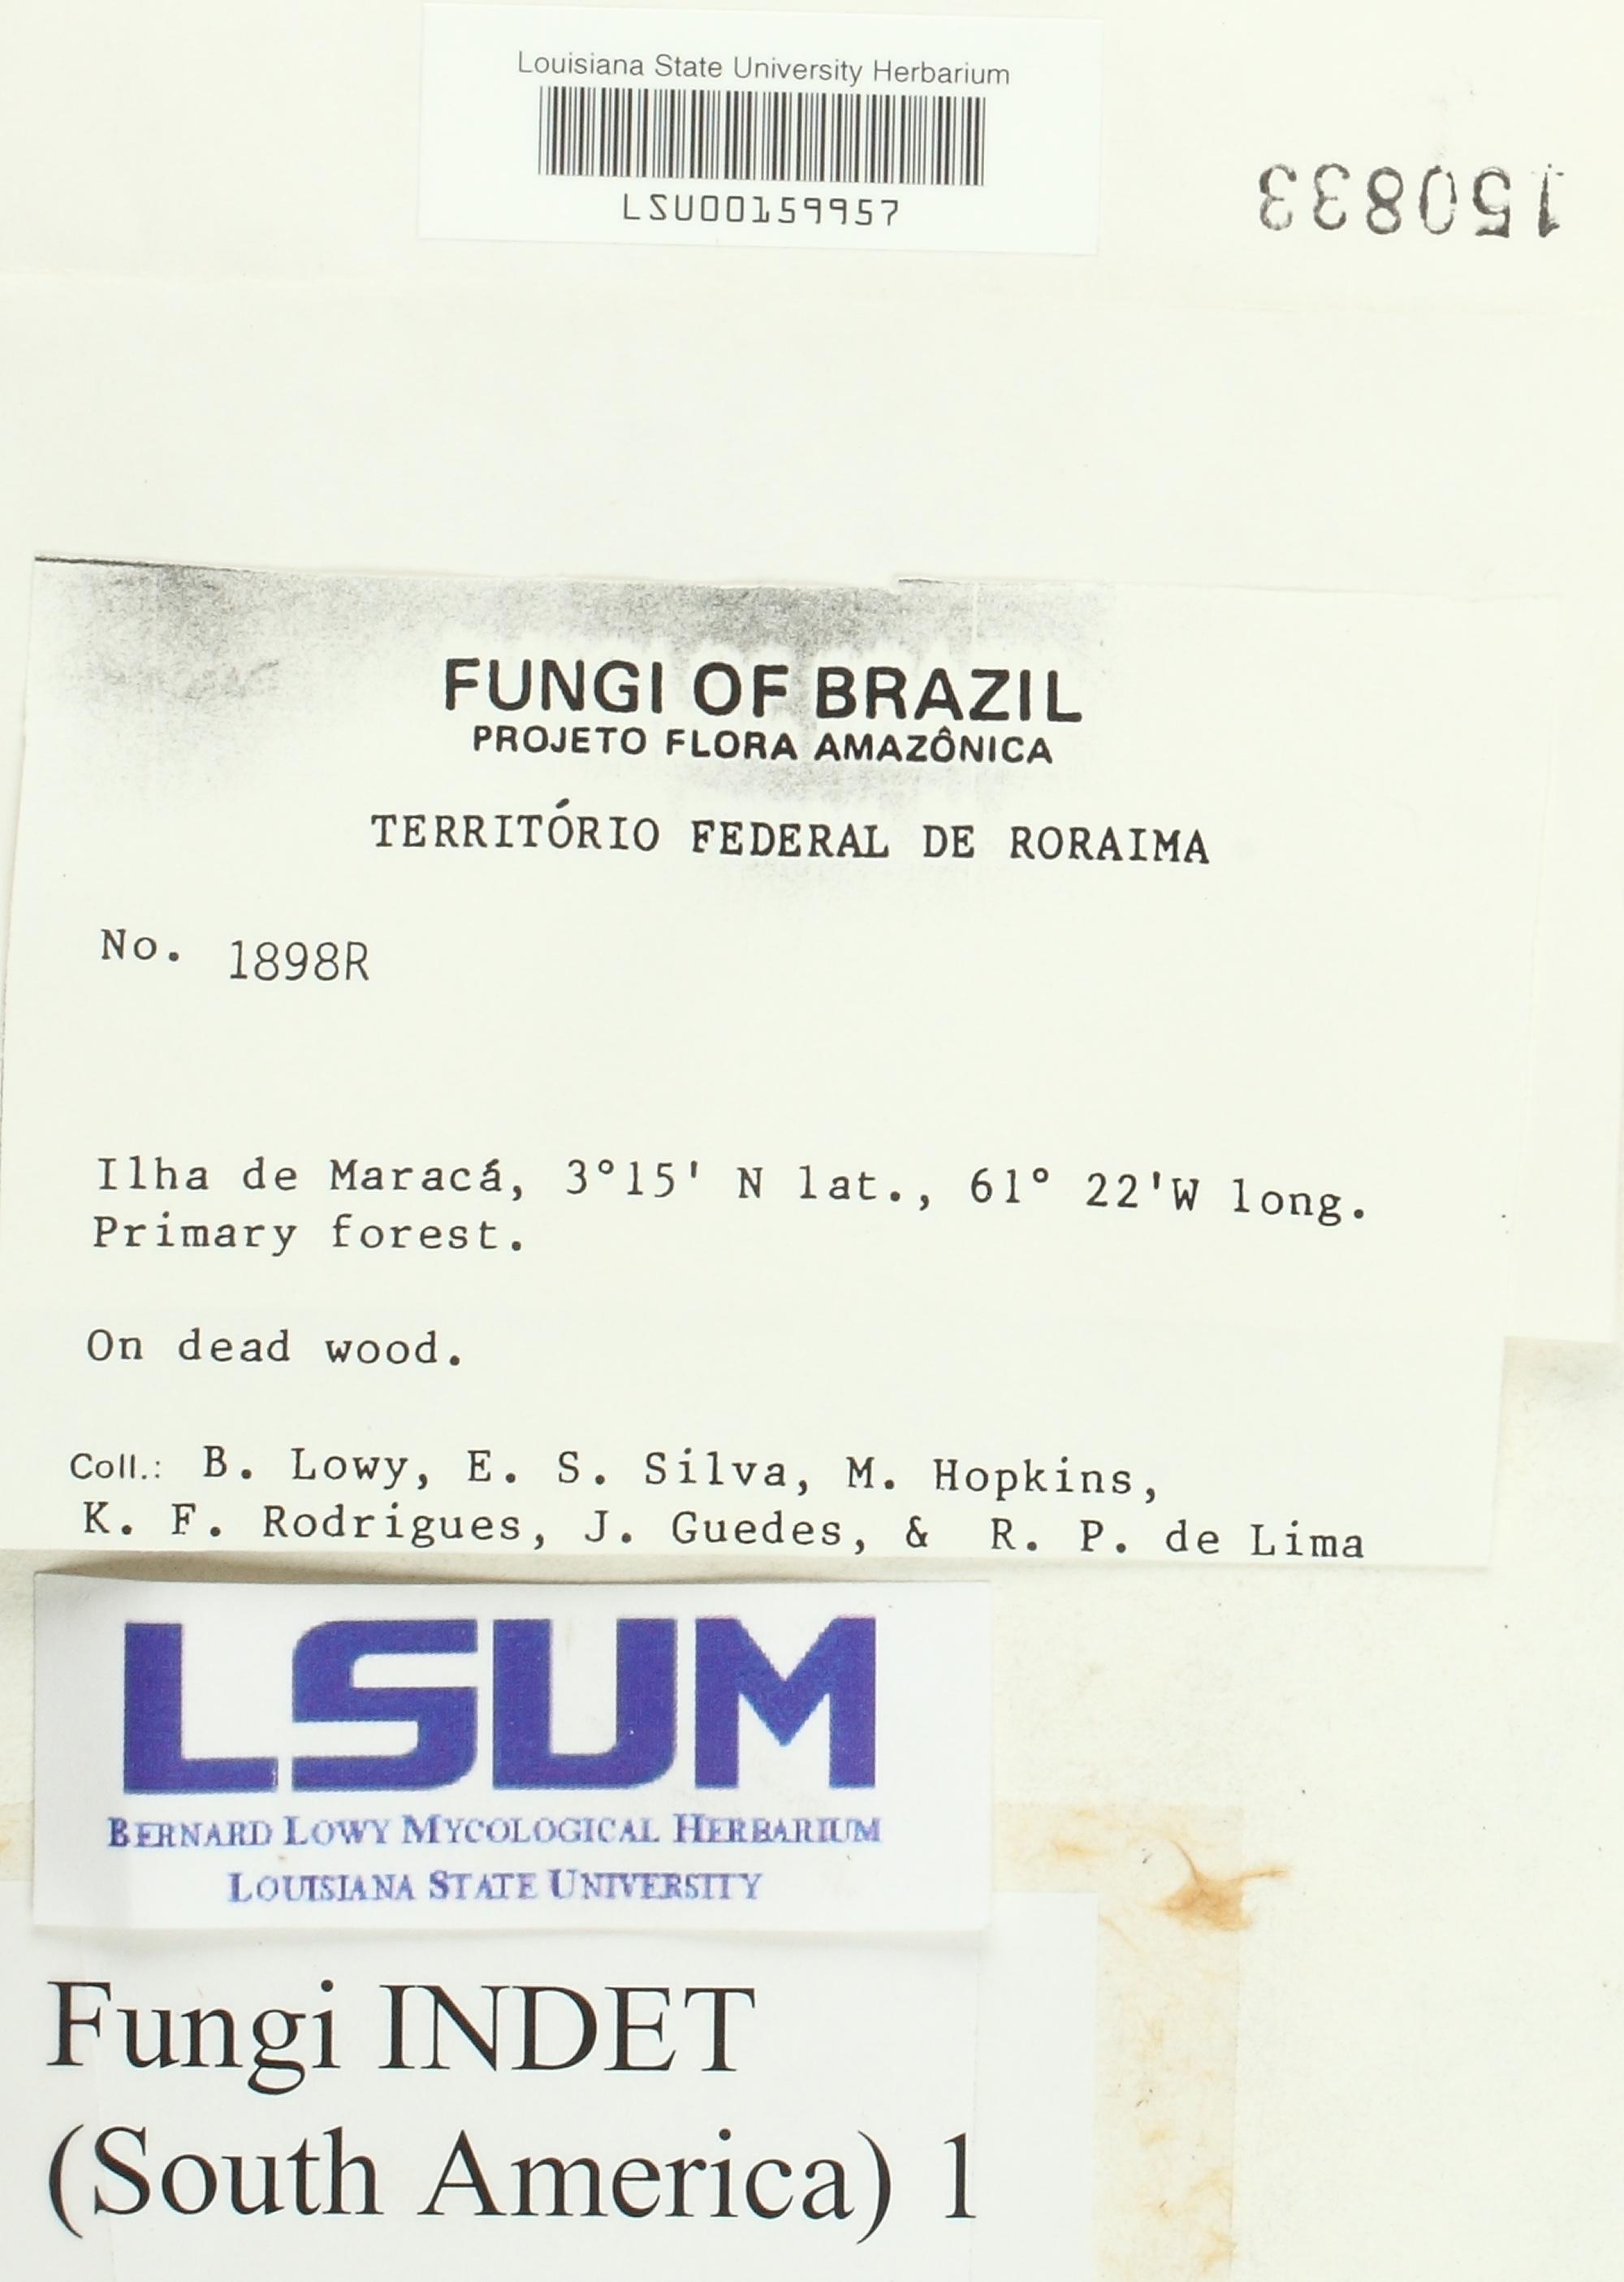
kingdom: Fungi
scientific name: Fungi
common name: Fungi
